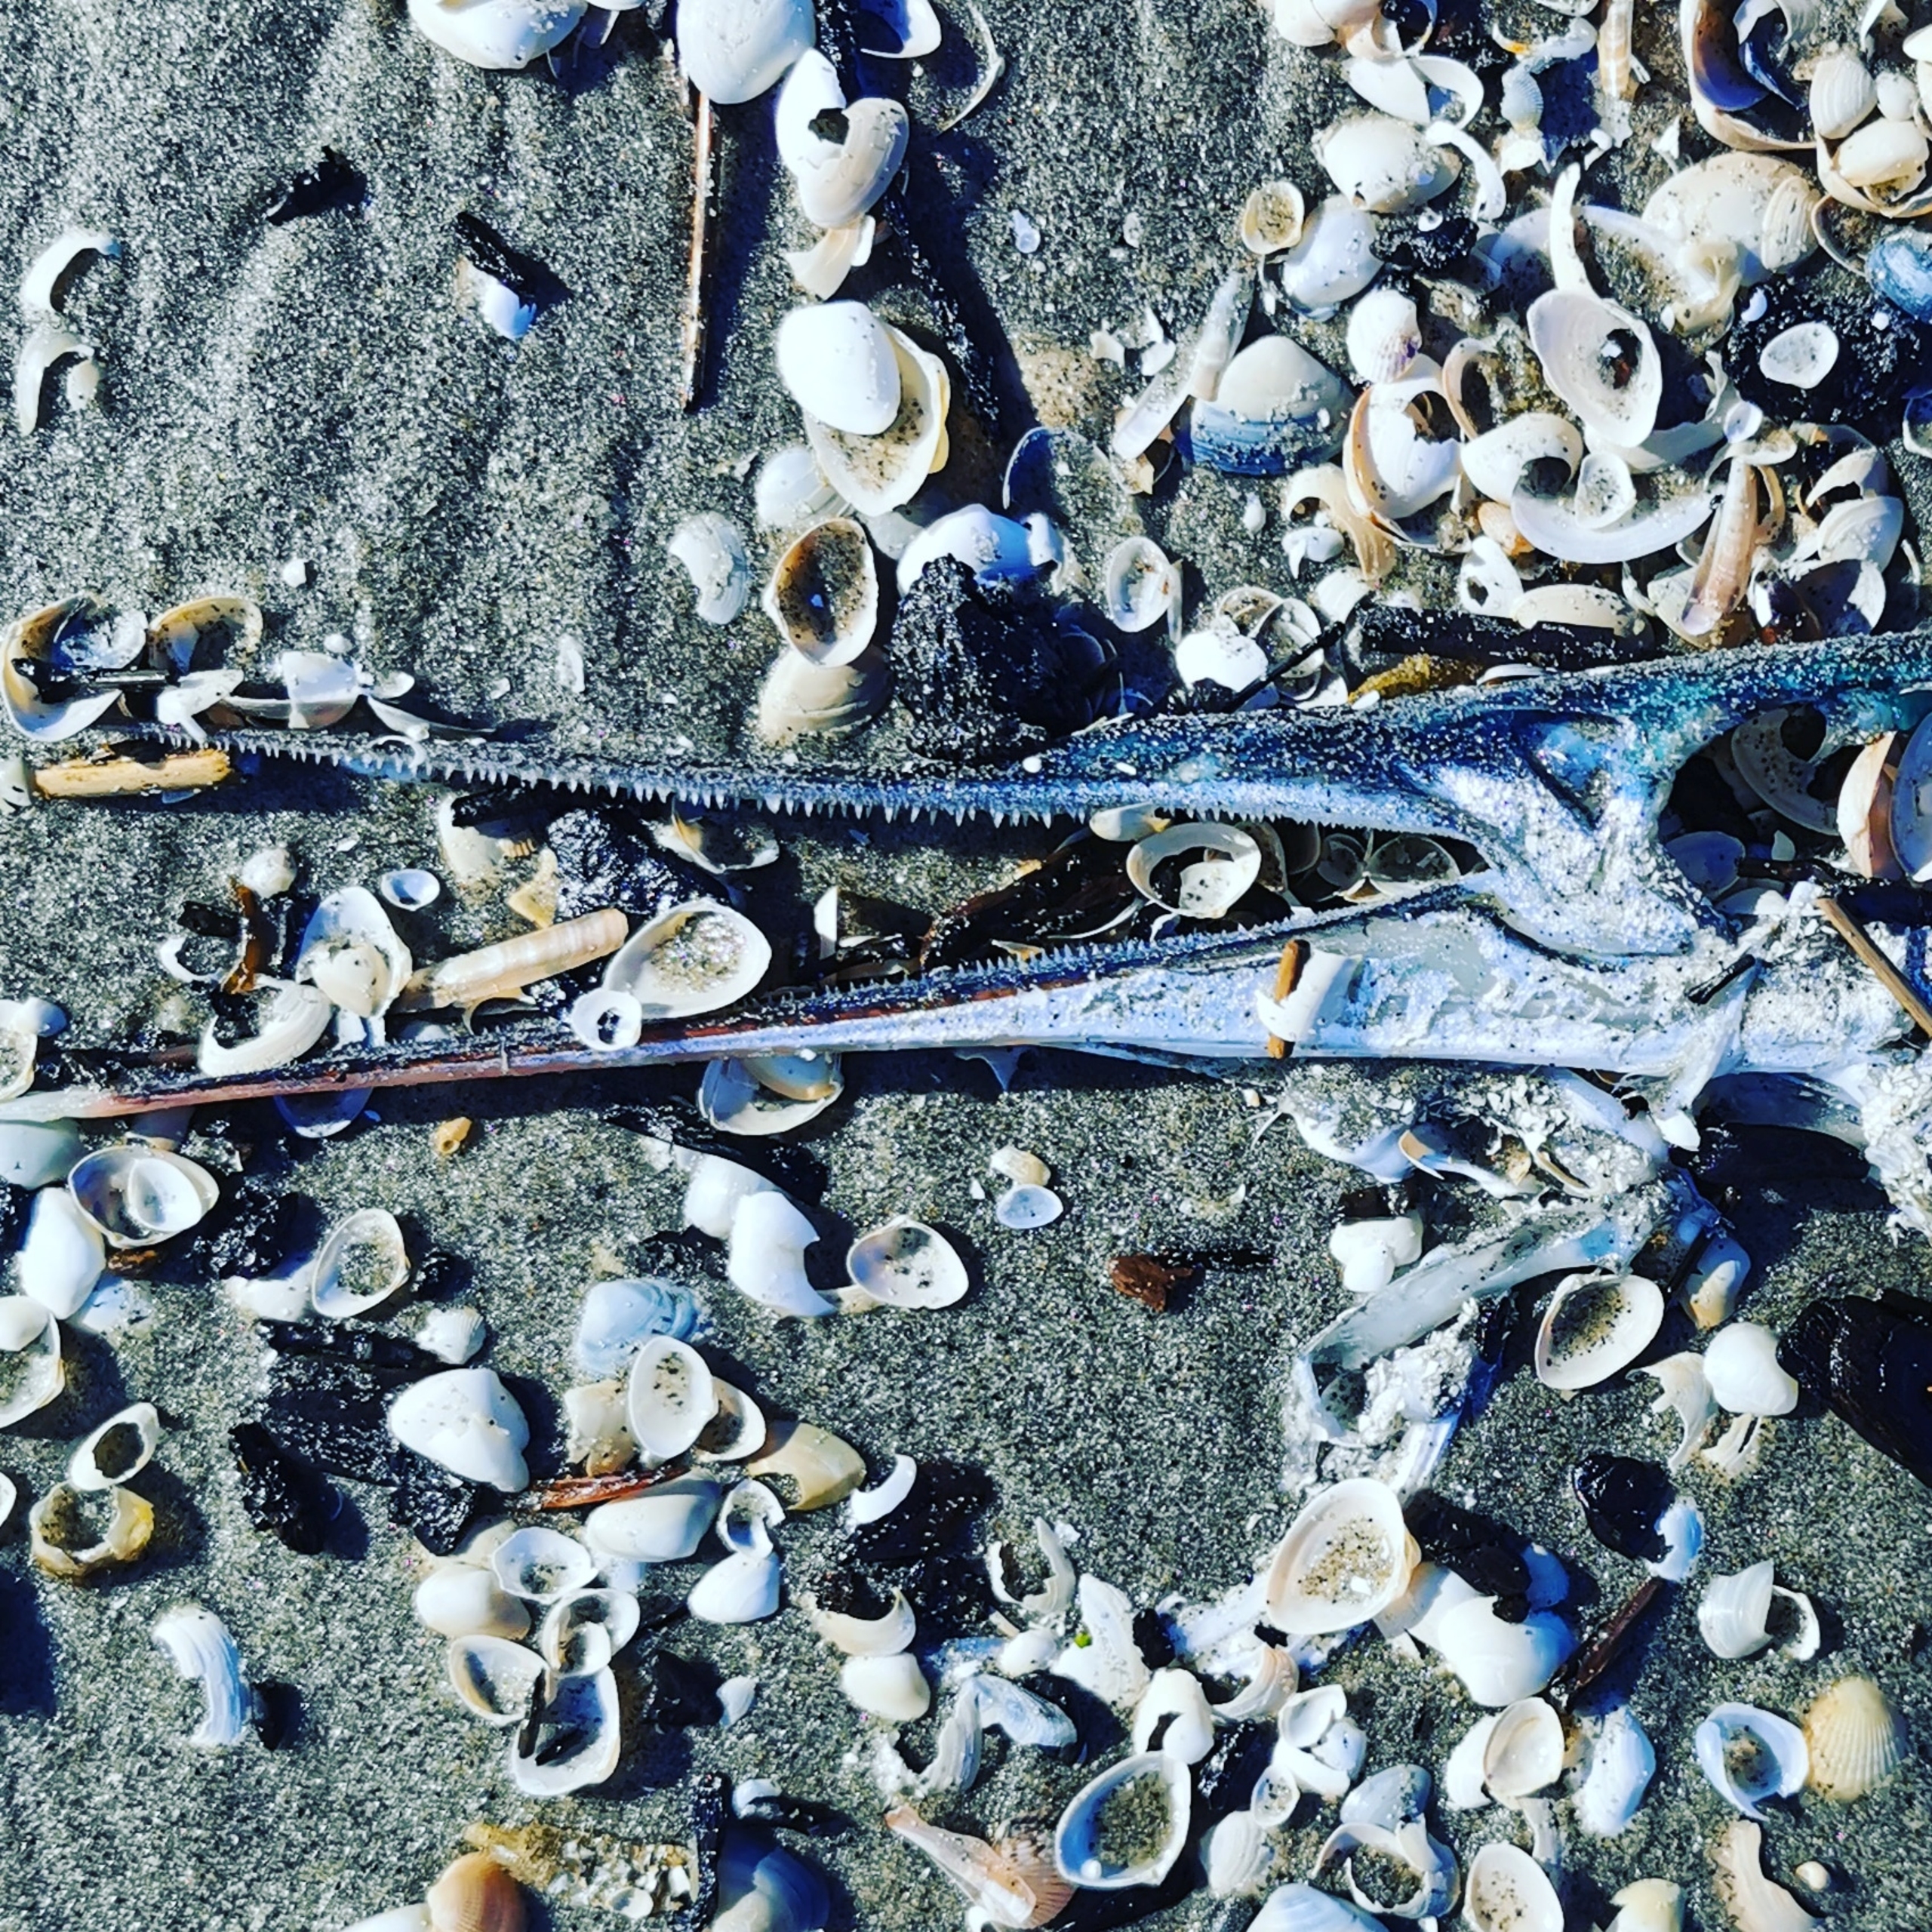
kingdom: Animalia
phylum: Chordata
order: Beloniformes
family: Belonidae
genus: Belone
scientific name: Belone belone
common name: Hornfisk
